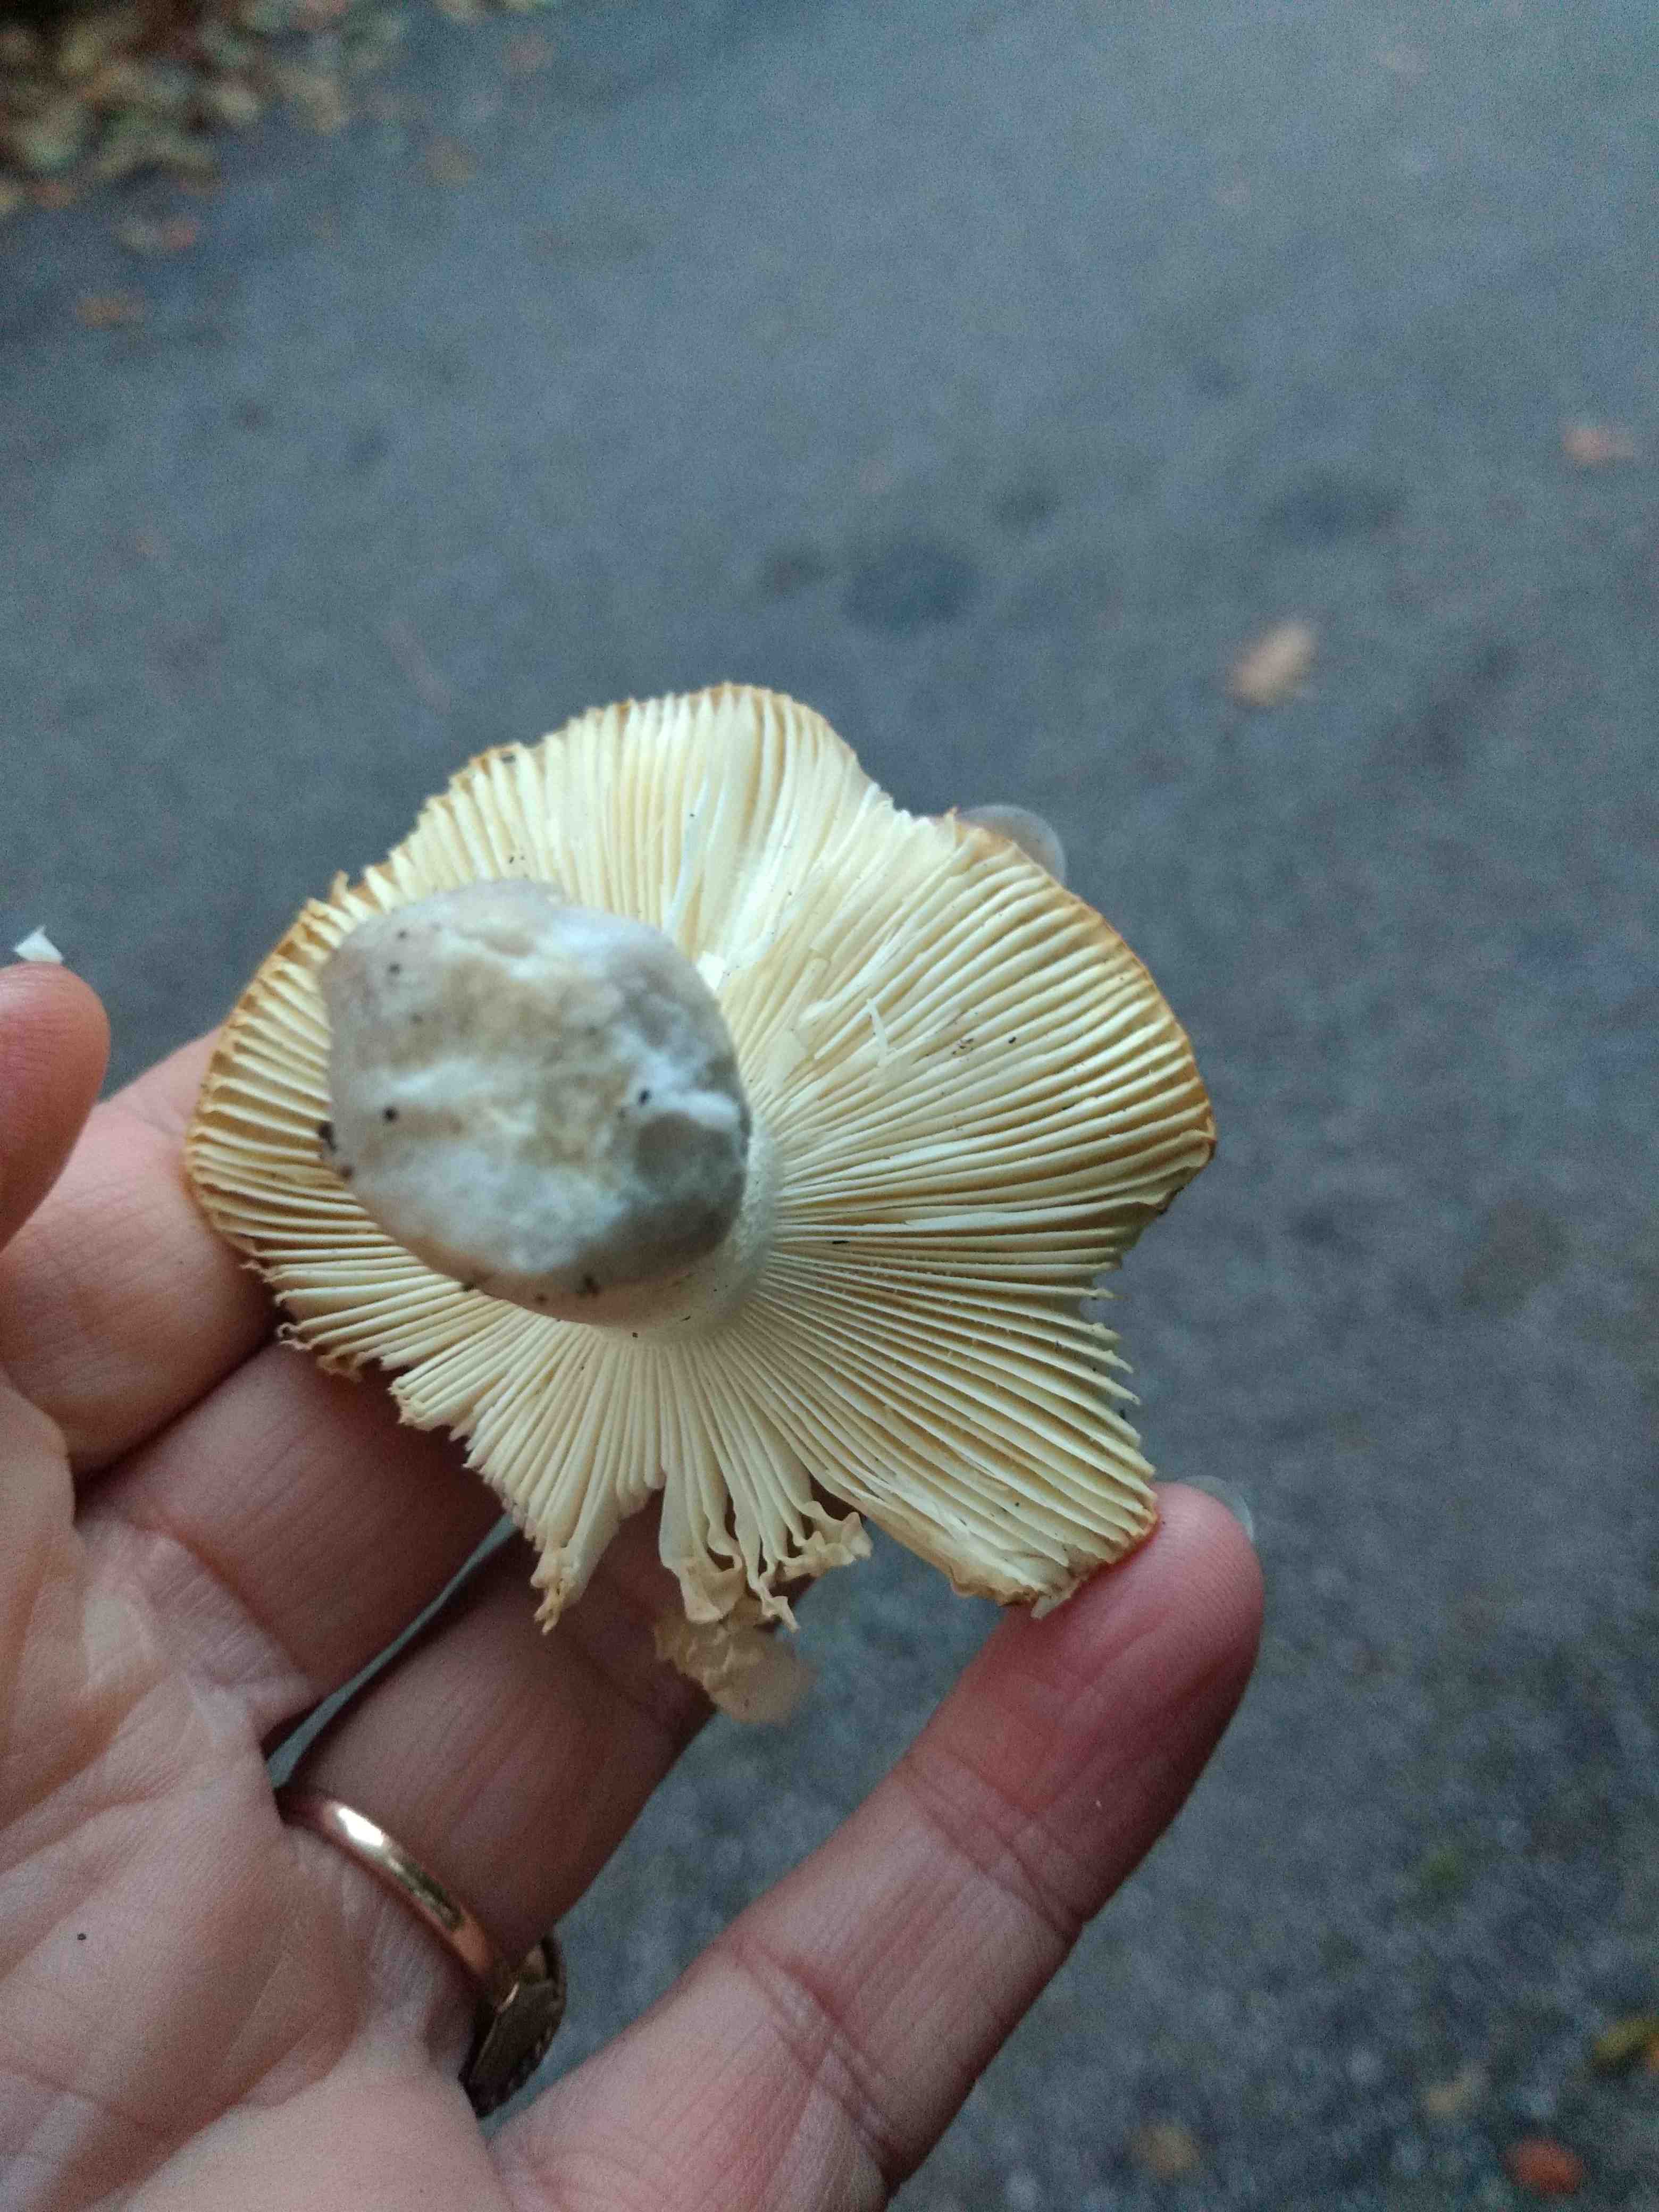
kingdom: Fungi
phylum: Basidiomycota
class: Agaricomycetes
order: Russulales
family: Russulaceae
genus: Russula
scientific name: Russula ochroleuca
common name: okkergul skørhat
